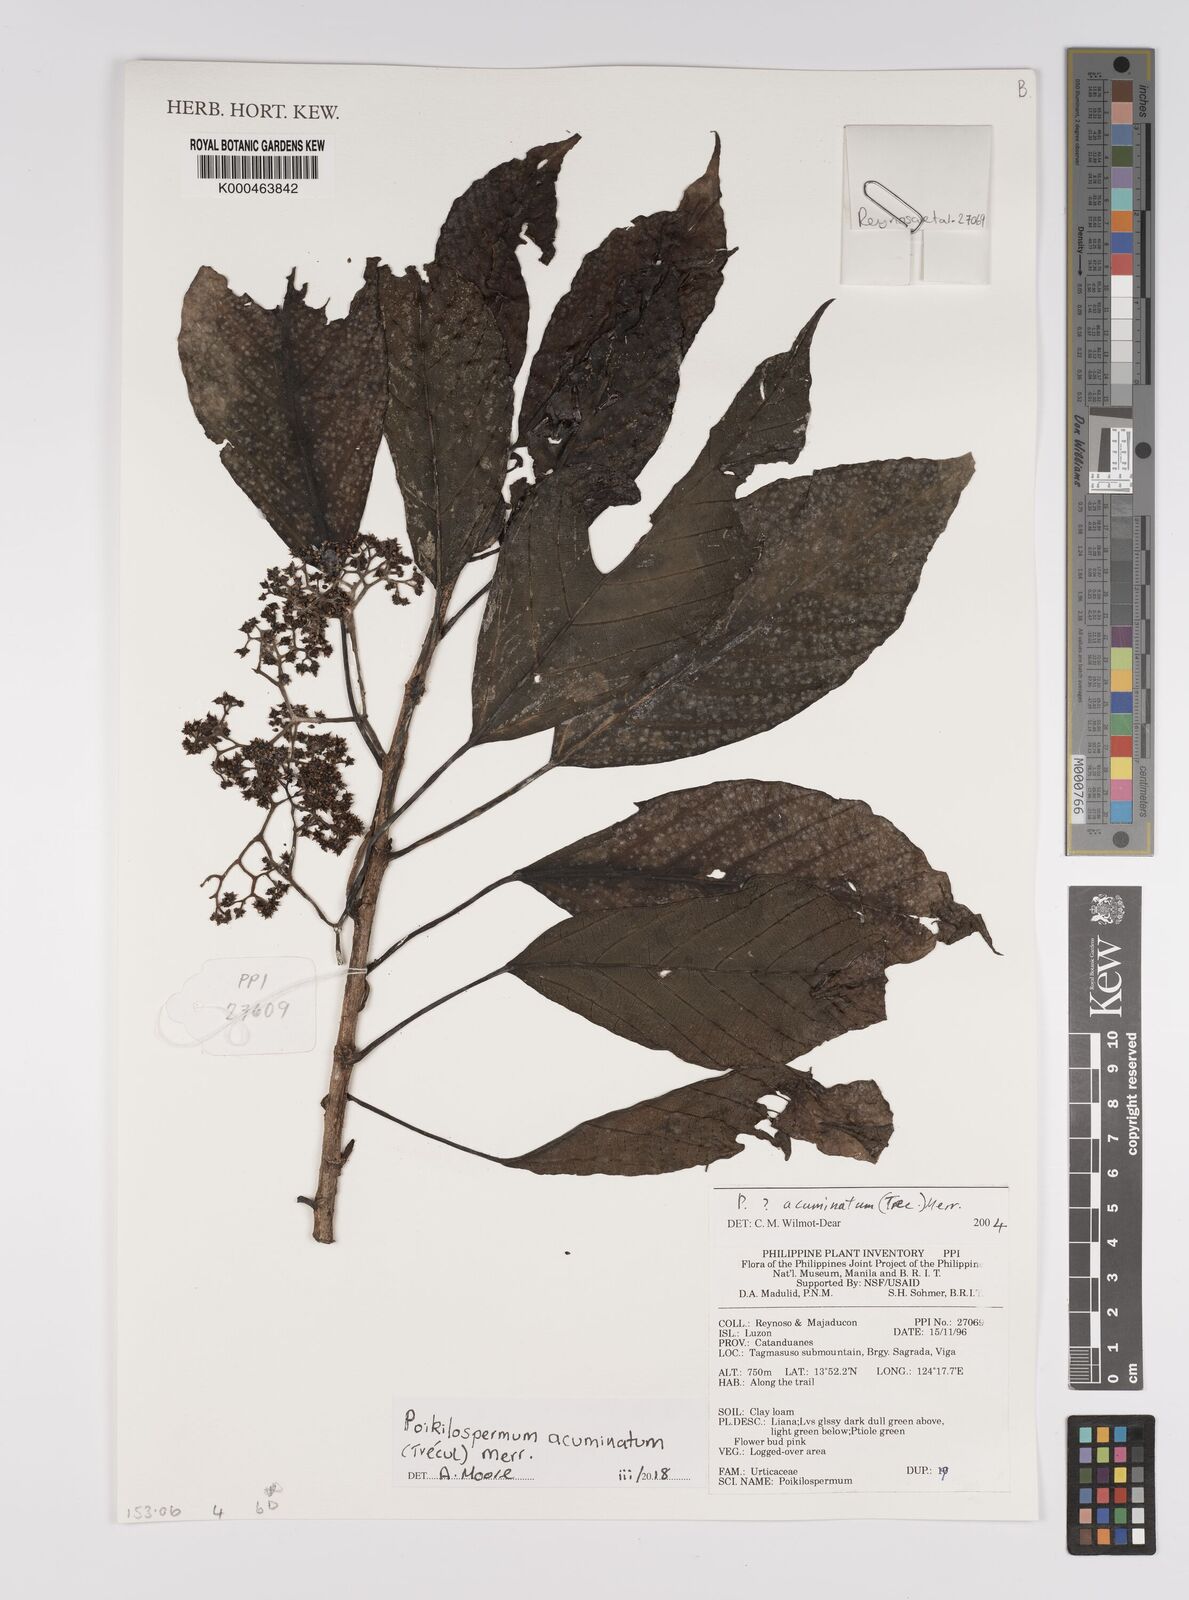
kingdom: Plantae
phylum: Tracheophyta
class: Magnoliopsida
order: Rosales
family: Urticaceae
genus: Poikilospermum
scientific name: Poikilospermum
